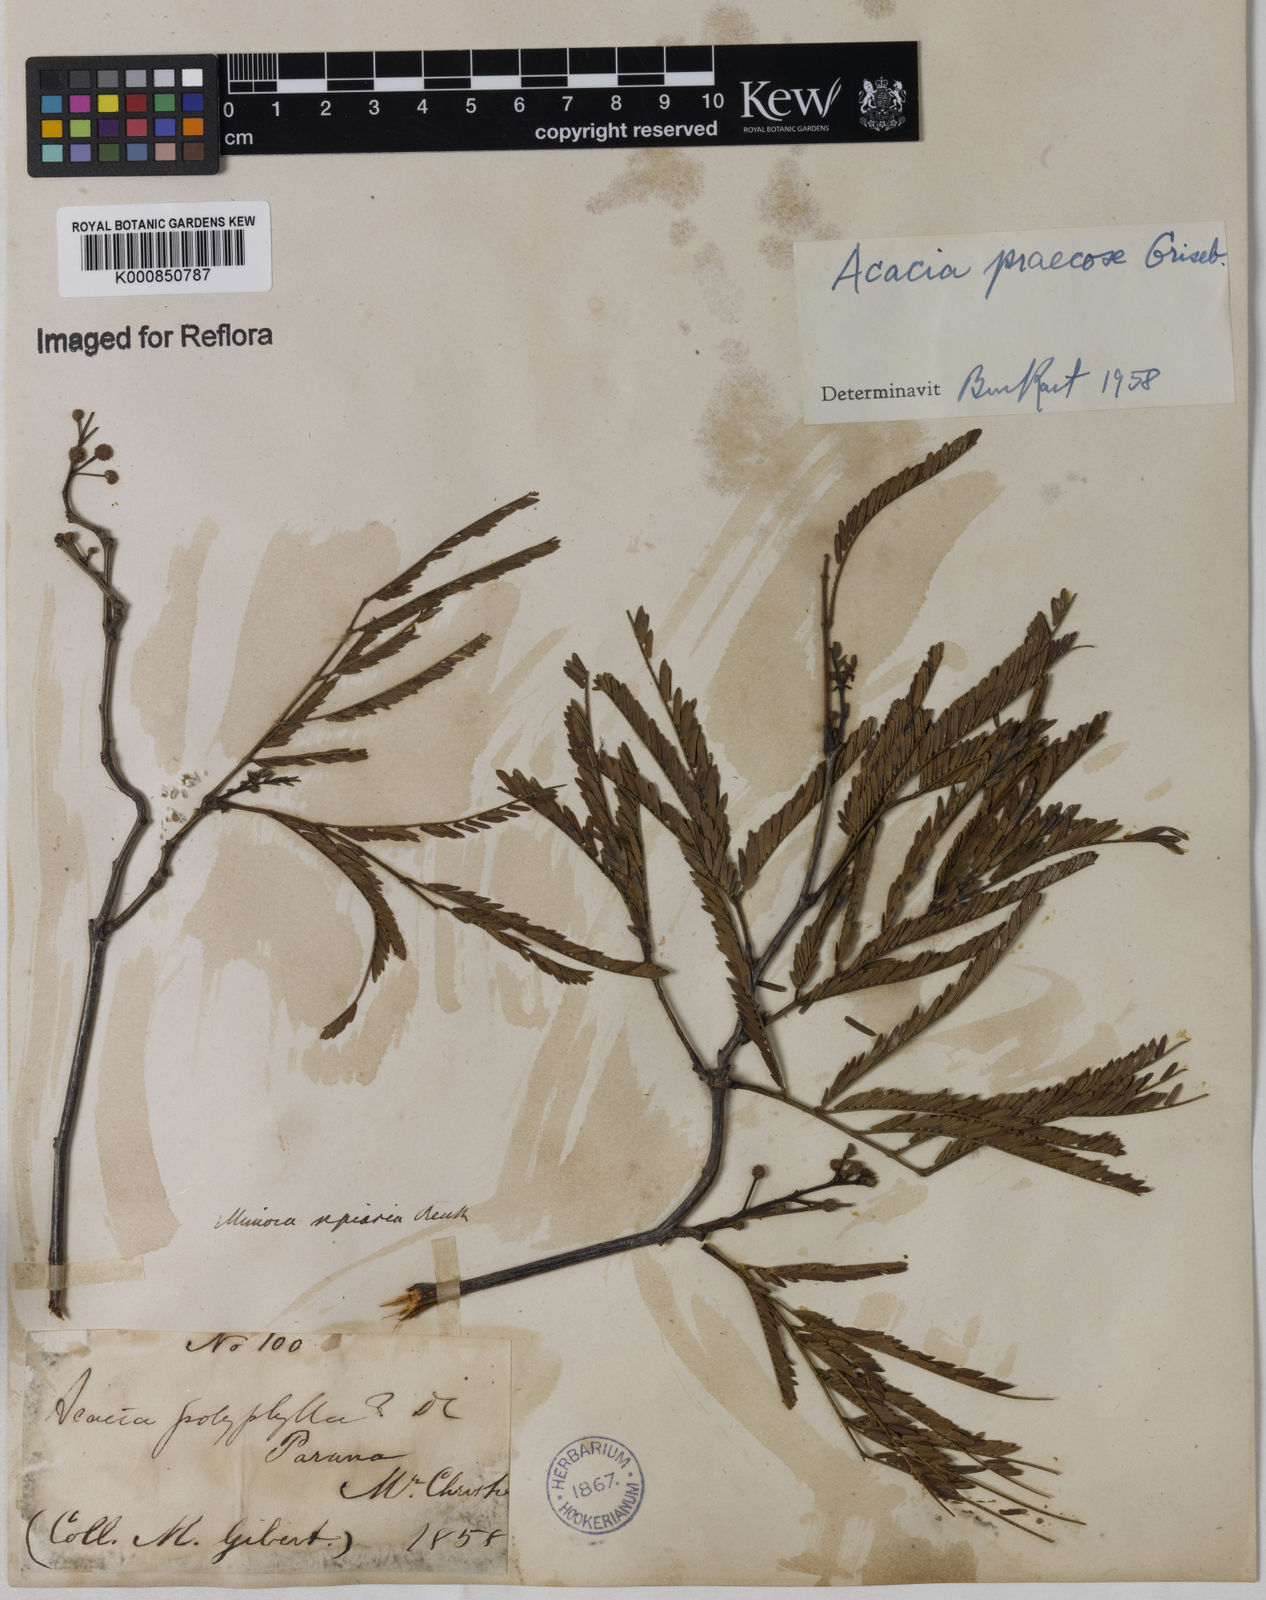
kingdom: Plantae
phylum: Tracheophyta
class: Magnoliopsida
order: Fabales
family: Fabaceae
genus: Senegalia
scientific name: Senegalia praecox
